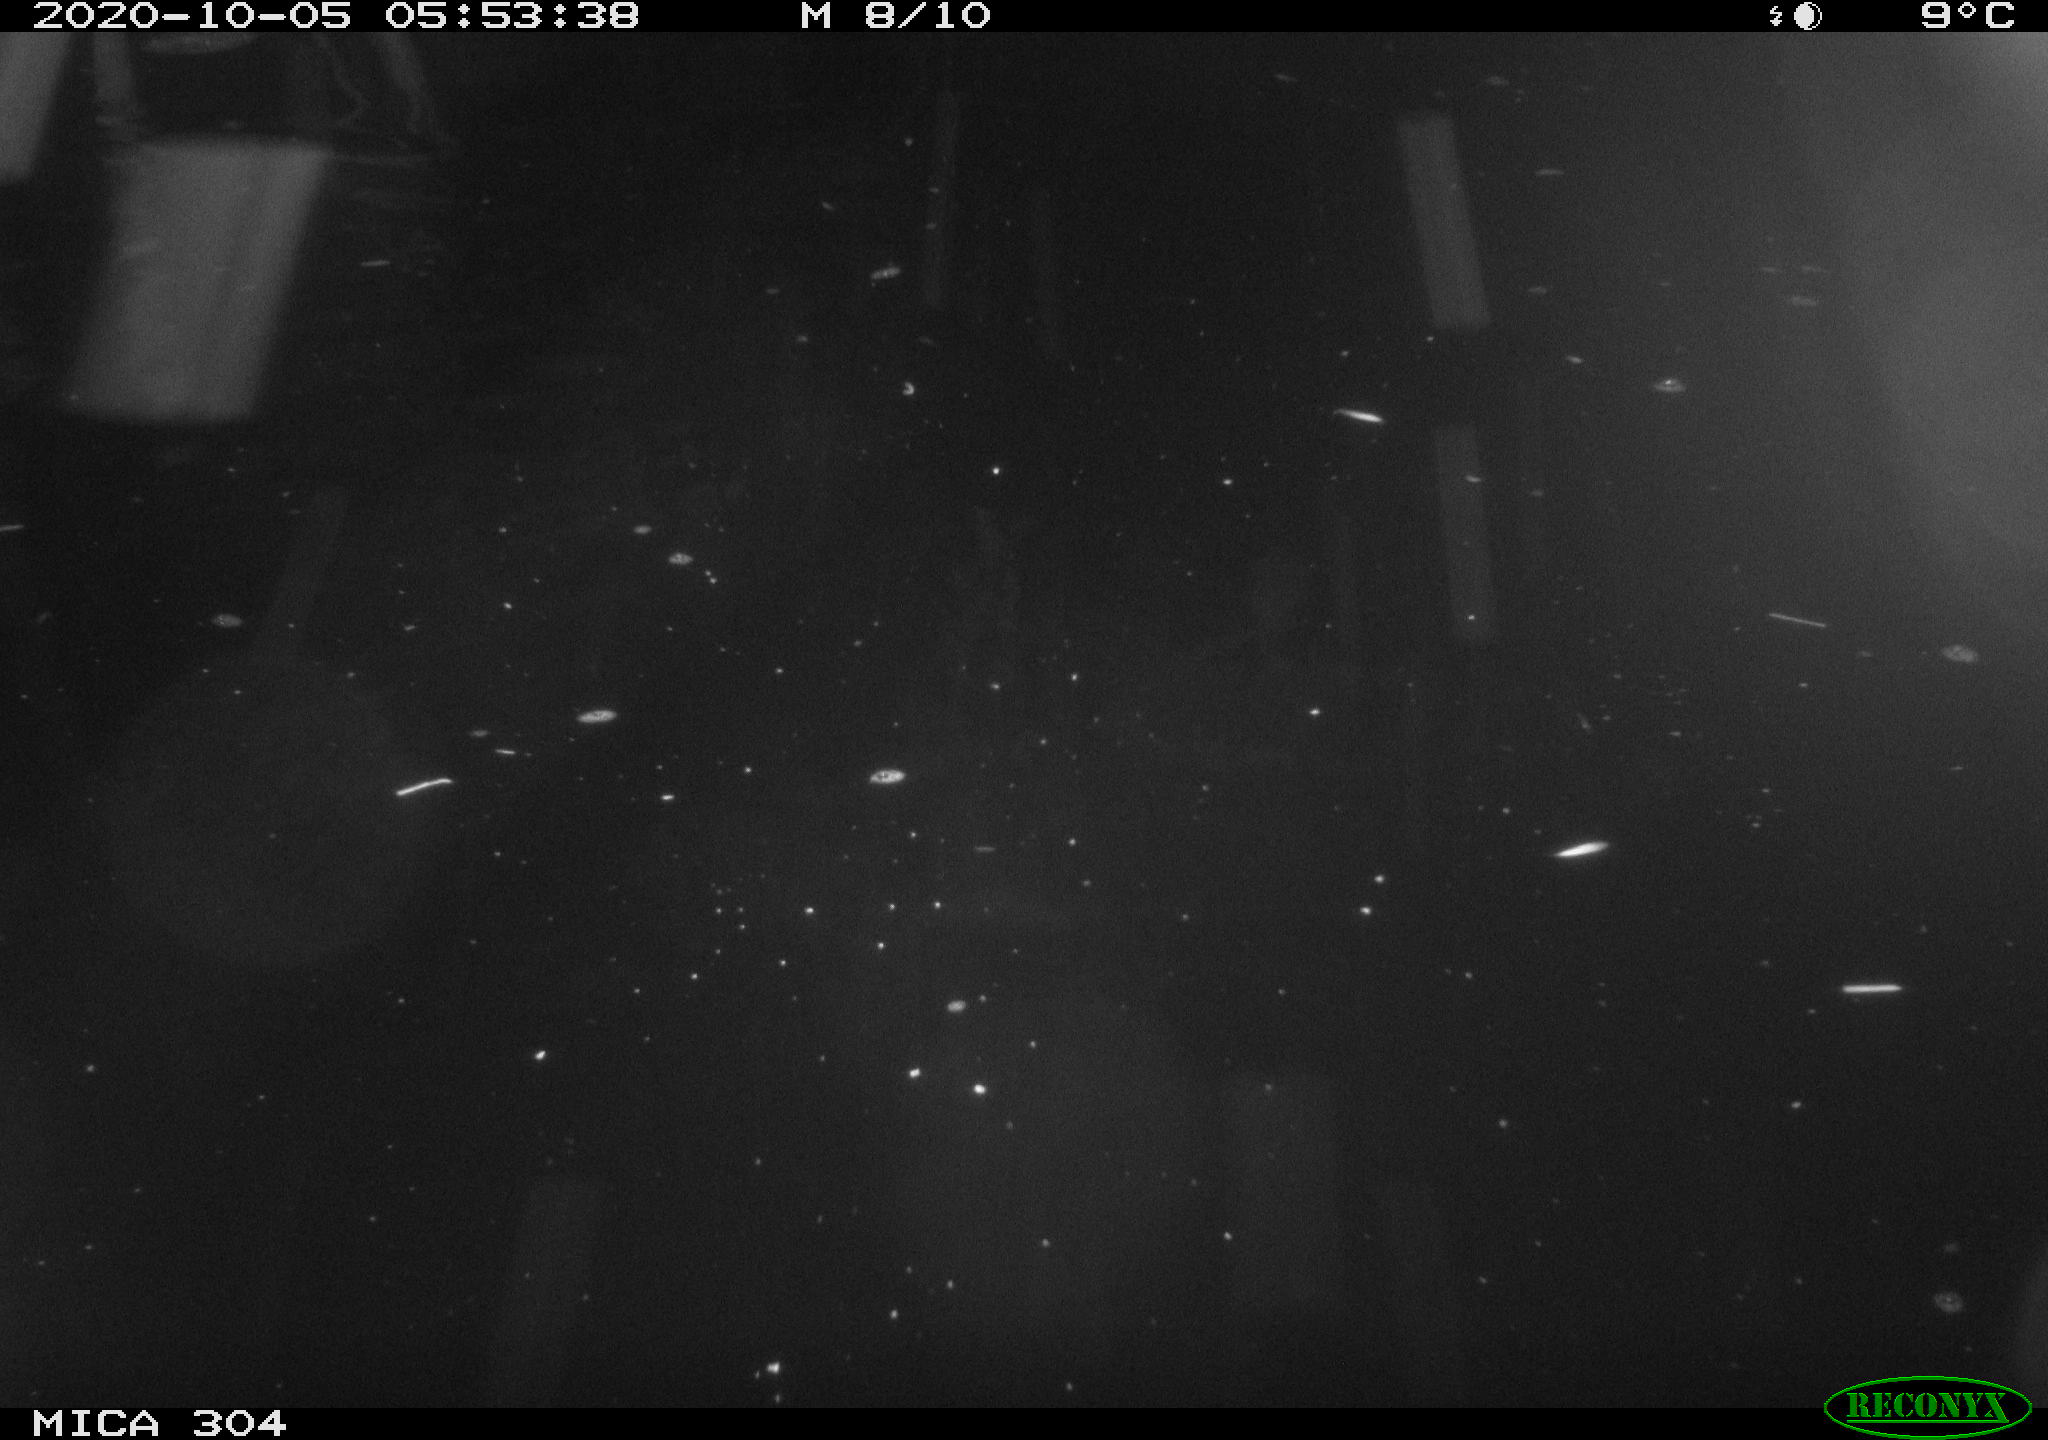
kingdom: Animalia
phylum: Chordata
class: Mammalia
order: Rodentia
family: Muridae
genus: Rattus
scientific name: Rattus norvegicus
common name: Brown rat
